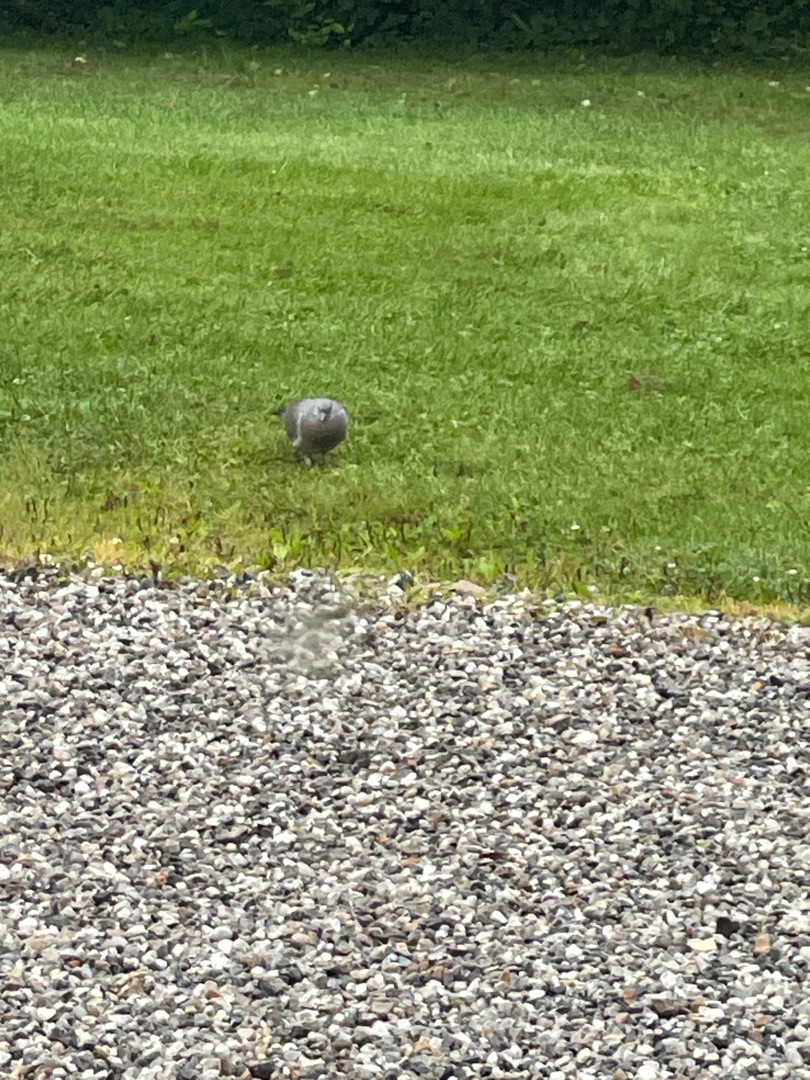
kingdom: Animalia
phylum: Chordata
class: Aves
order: Columbiformes
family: Columbidae
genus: Columba
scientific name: Columba palumbus
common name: Ringdue
